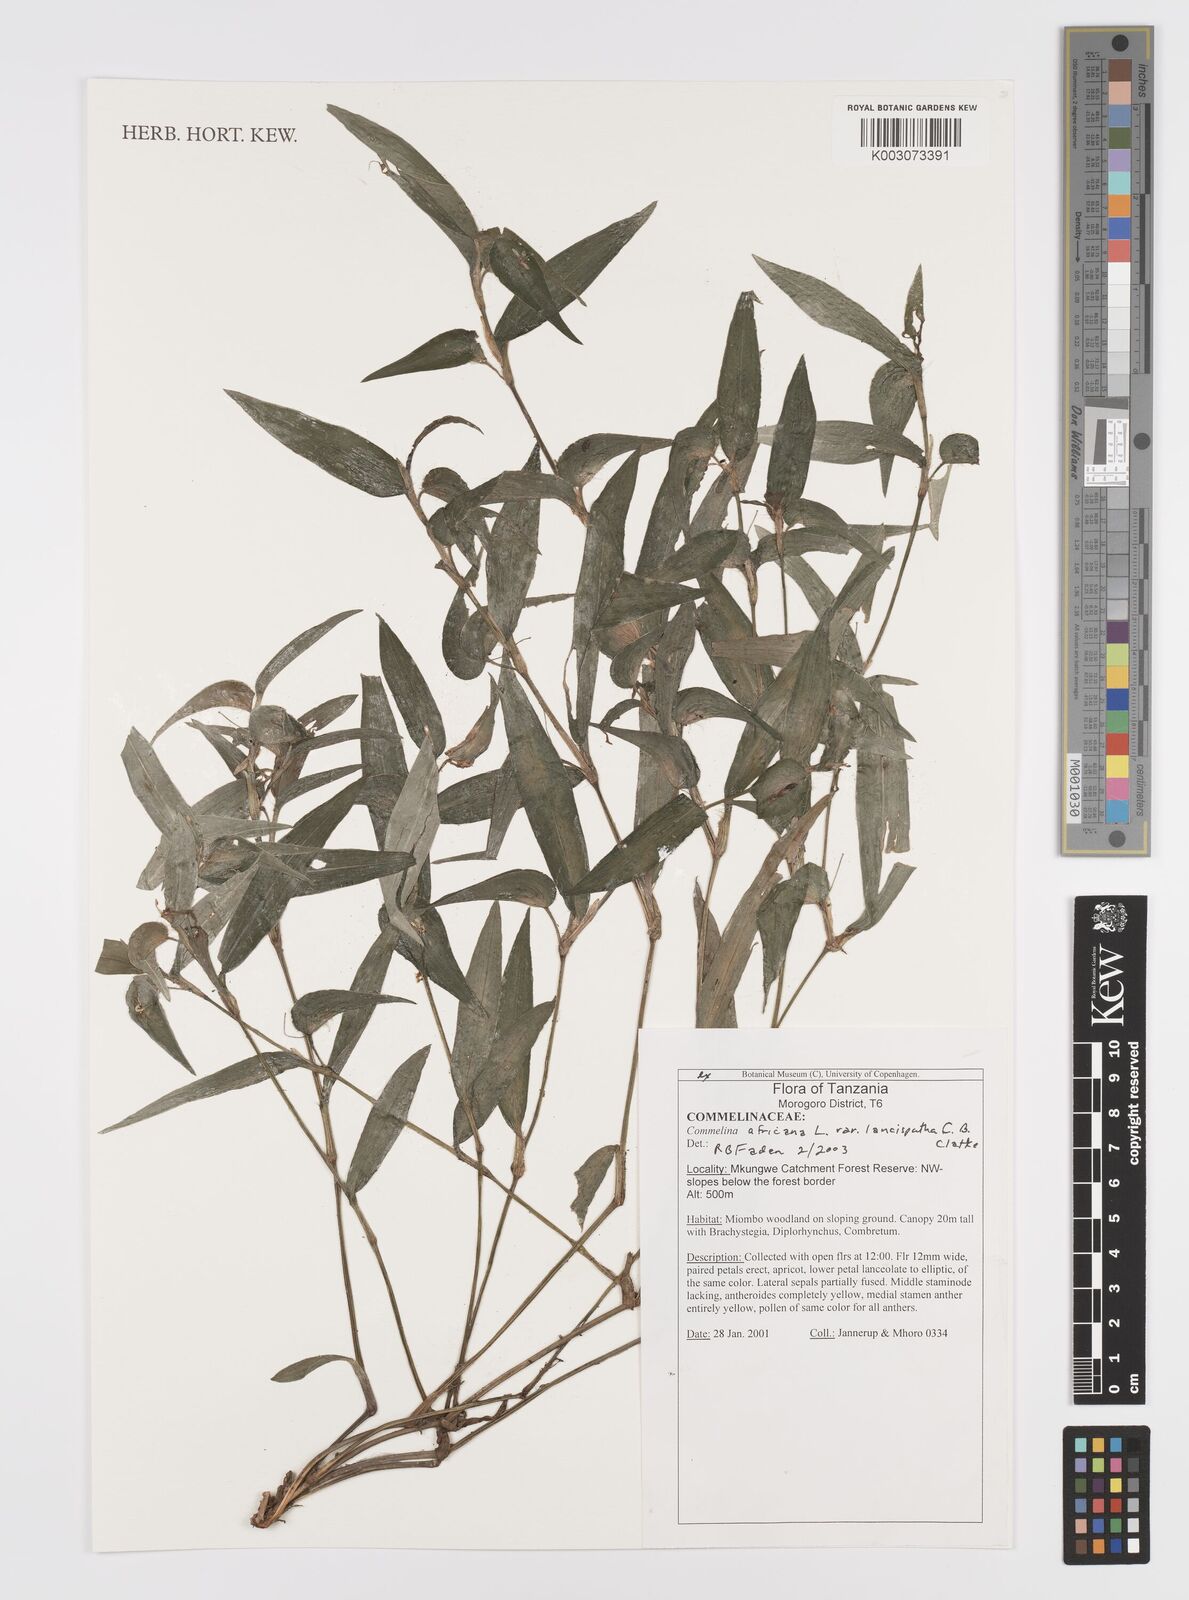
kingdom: Plantae
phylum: Tracheophyta
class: Liliopsida
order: Commelinales
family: Commelinaceae
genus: Commelina
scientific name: Commelina africana
